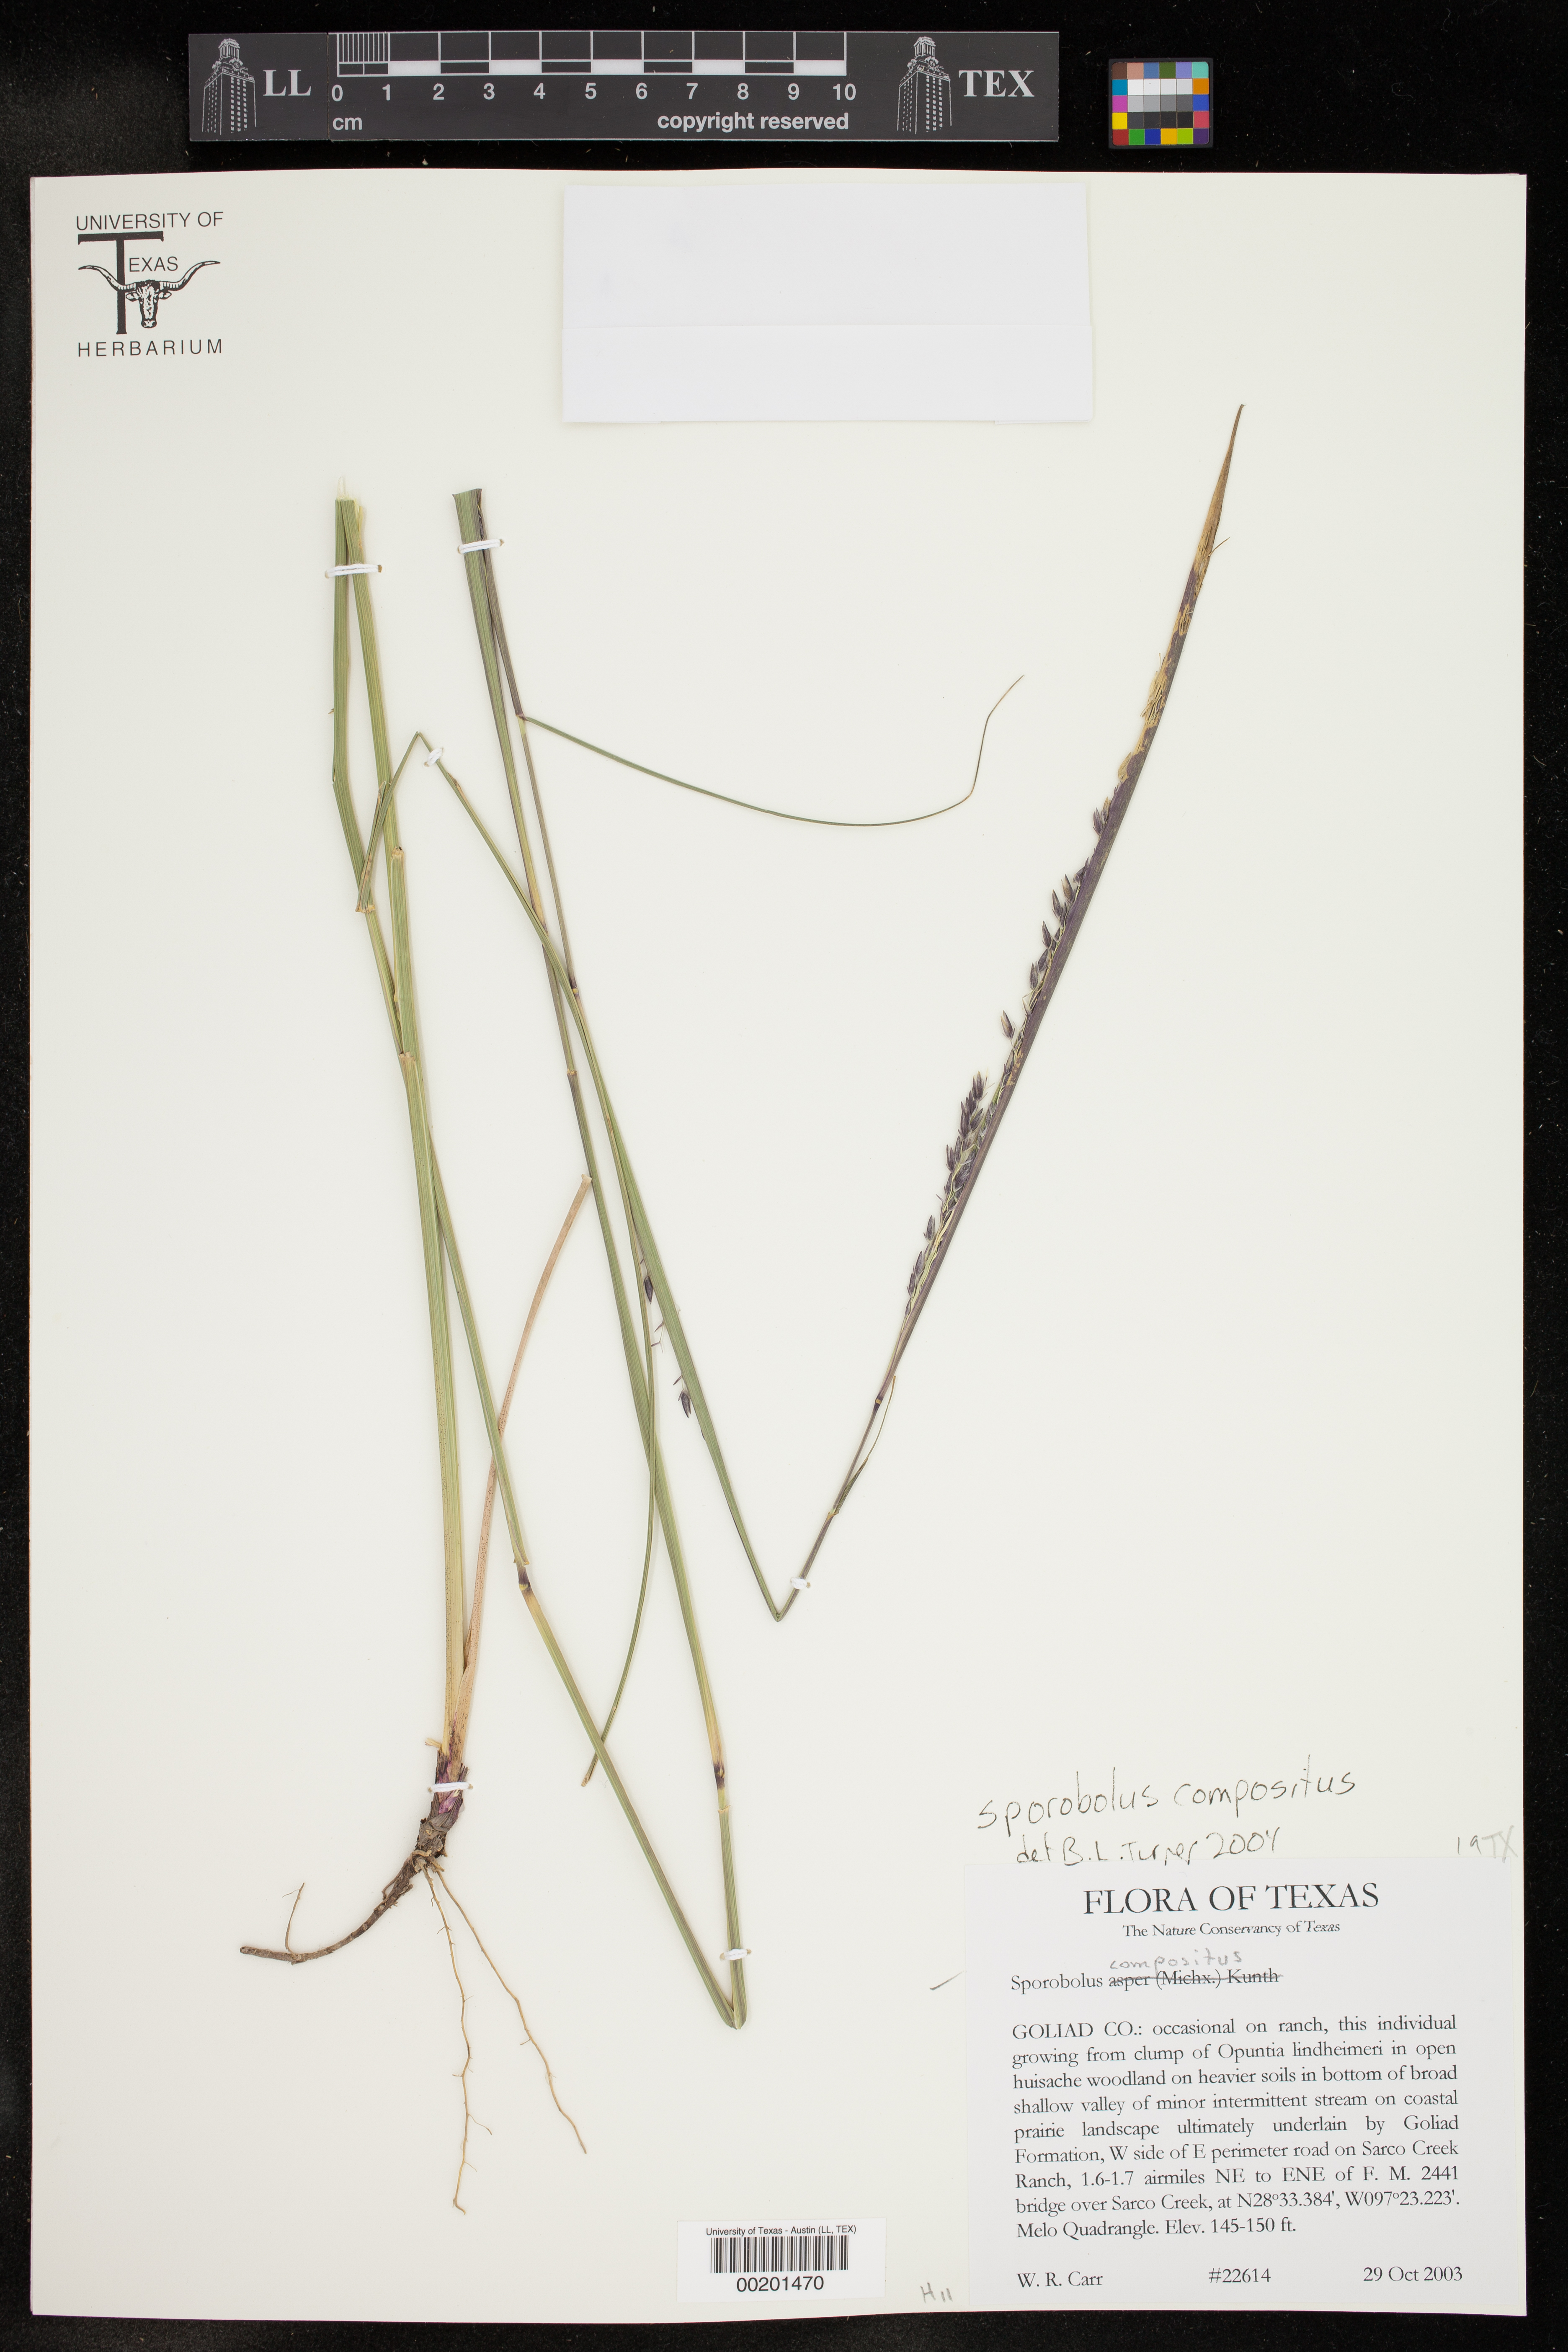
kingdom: Plantae
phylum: Tracheophyta
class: Liliopsida
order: Poales
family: Poaceae
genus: Sporobolus
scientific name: Sporobolus compositus
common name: Rough dropseed
